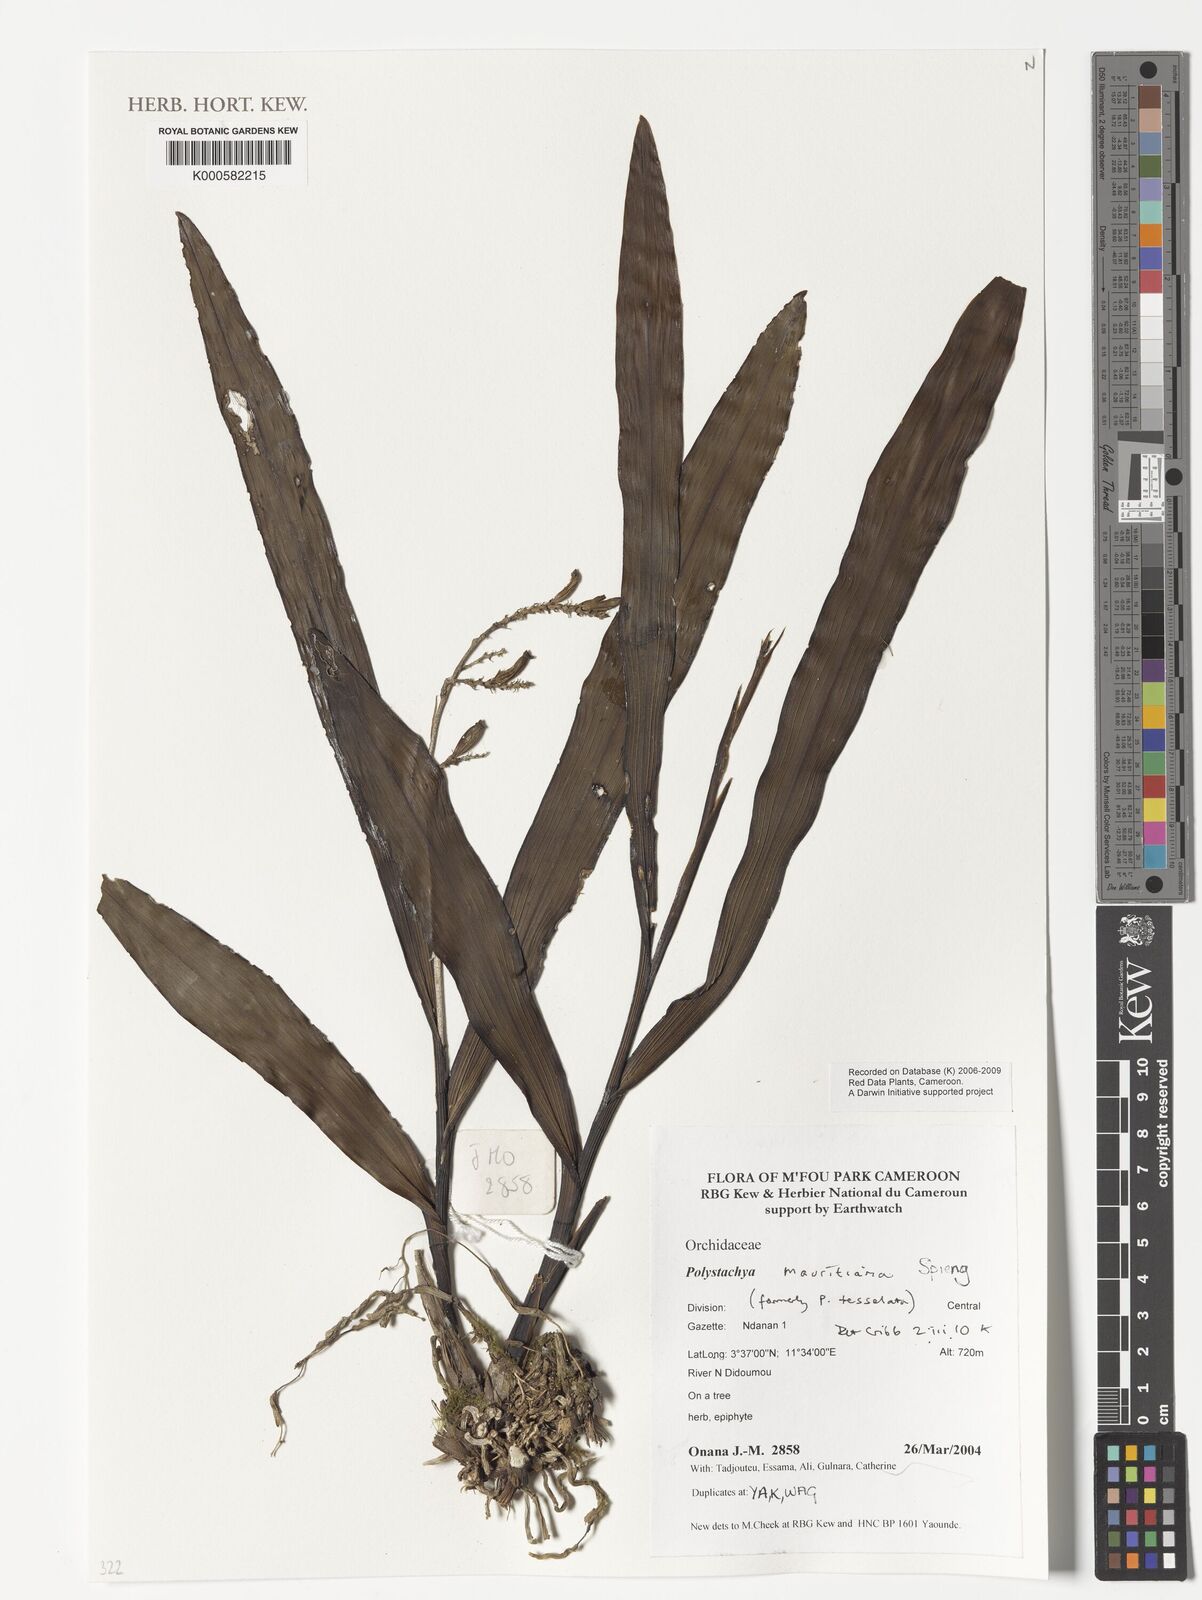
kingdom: Plantae
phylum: Tracheophyta
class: Liliopsida
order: Asparagales
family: Orchidaceae
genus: Polystachya
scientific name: Polystachya concreta
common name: Greater yellowspike orchid
